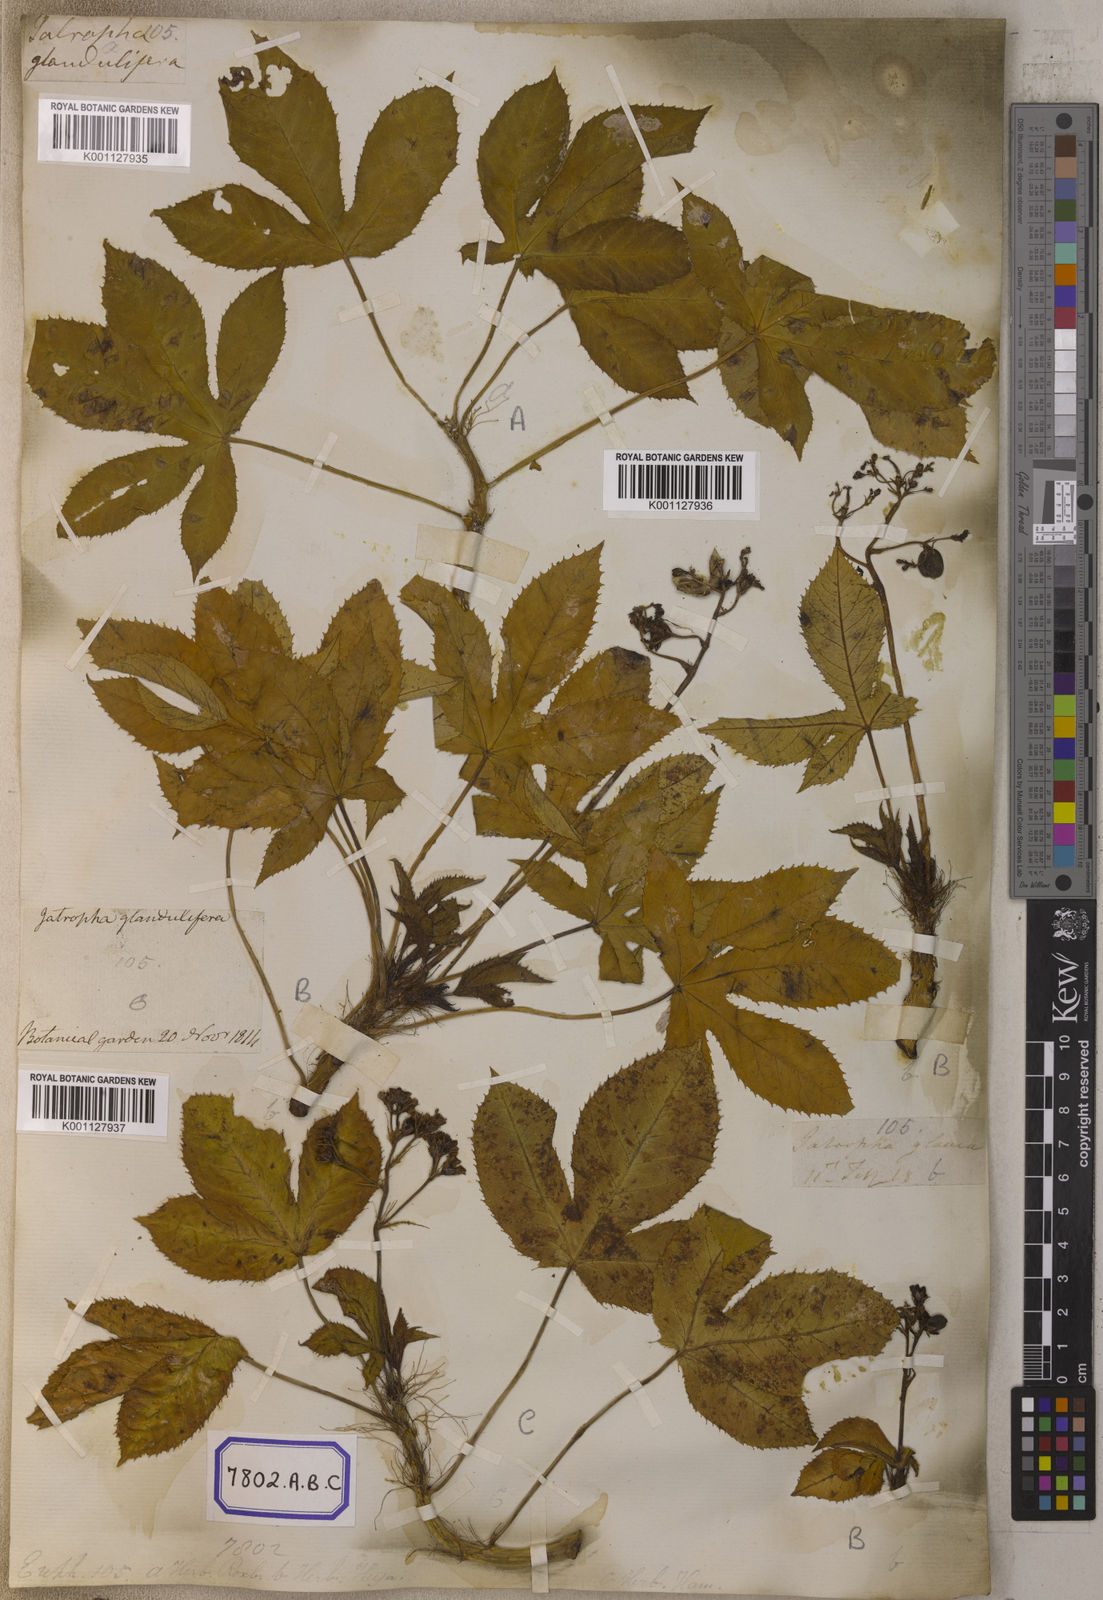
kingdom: Plantae
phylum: Tracheophyta
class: Magnoliopsida
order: Malpighiales
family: Euphorbiaceae
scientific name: Euphorbiaceae
